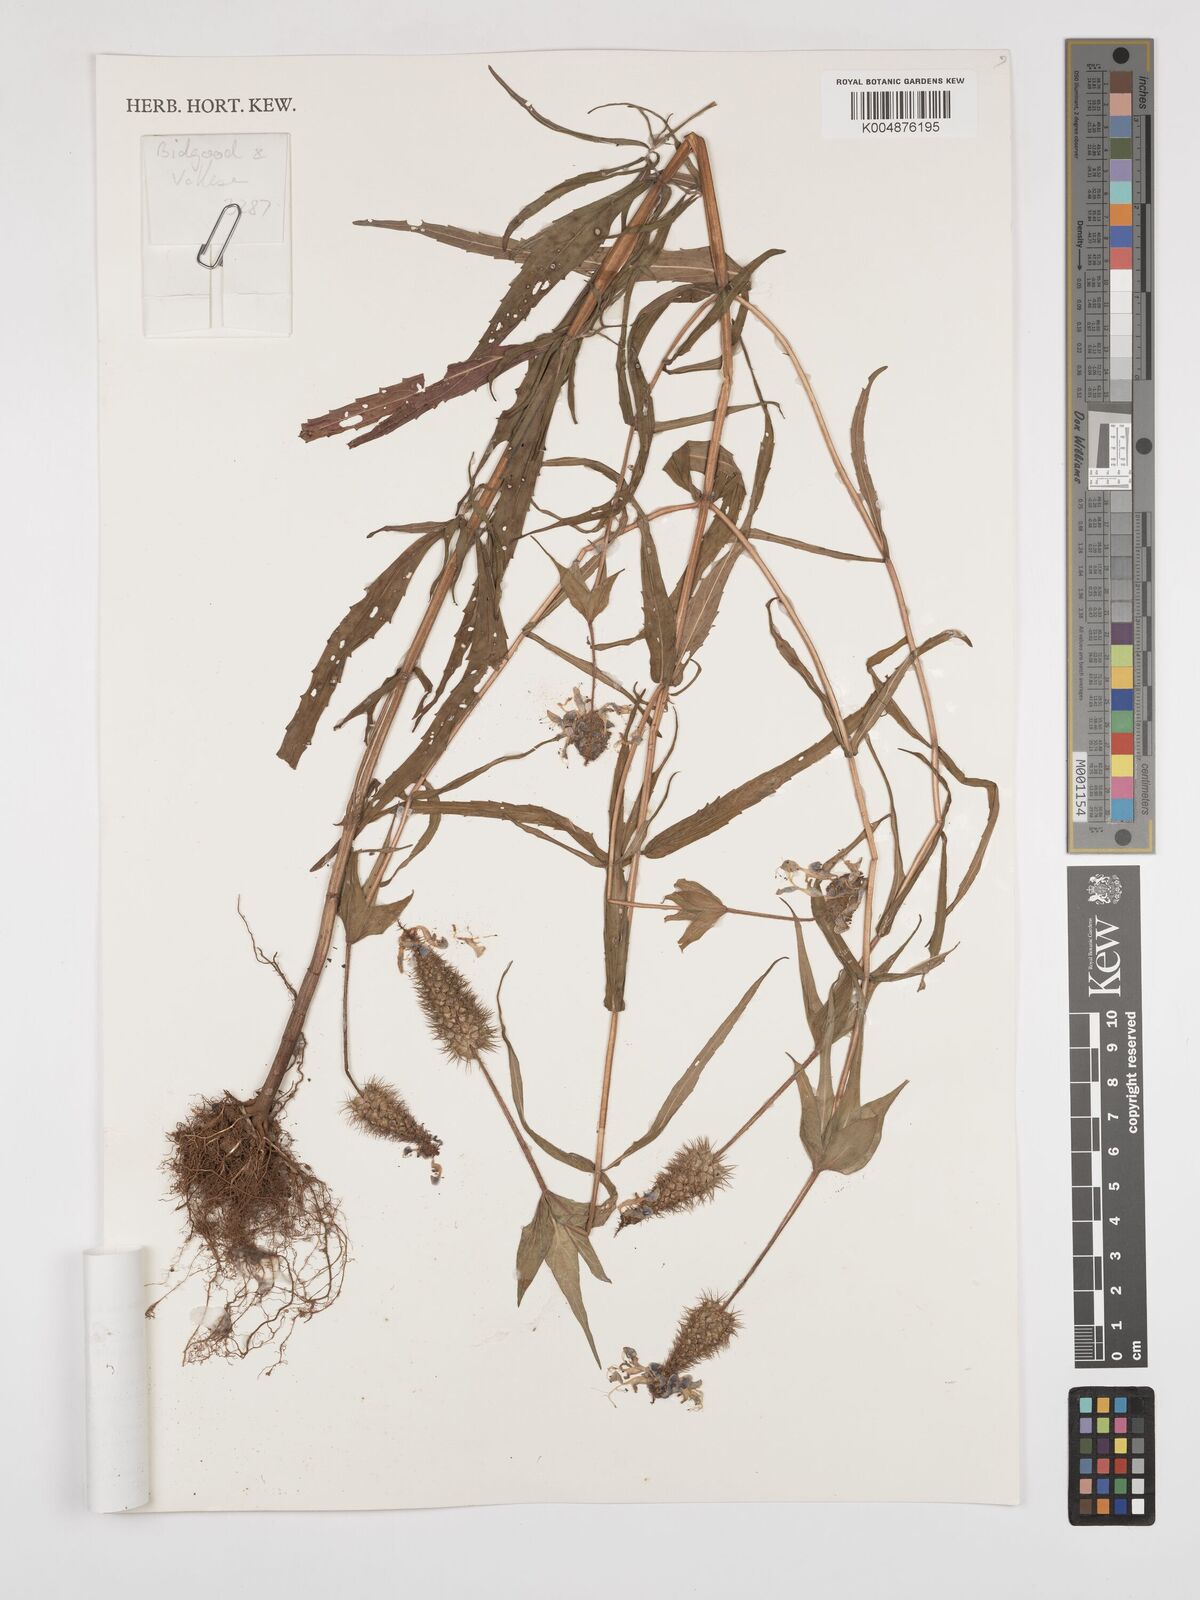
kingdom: Plantae
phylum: Tracheophyta
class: Magnoliopsida
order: Lamiales
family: Lamiaceae
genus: Coleus
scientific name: Coleus scruposus
